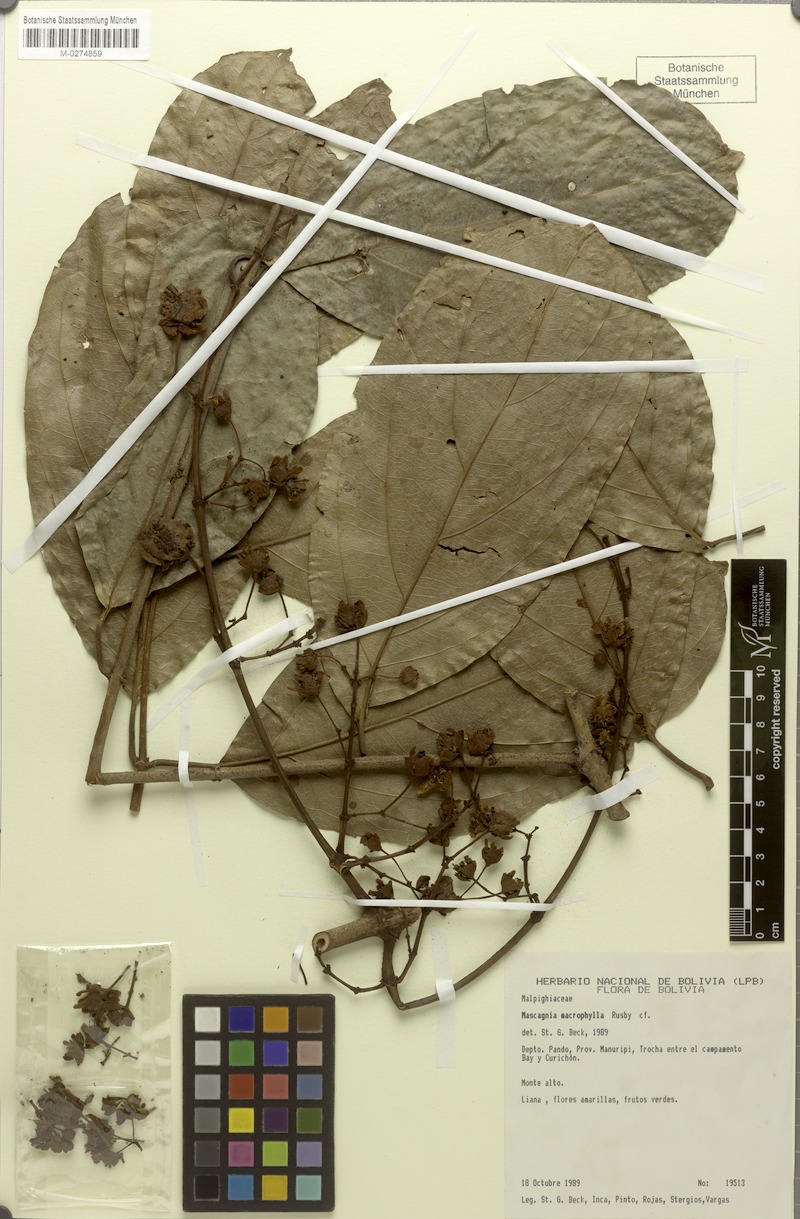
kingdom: Plantae
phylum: Tracheophyta
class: Magnoliopsida
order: Malpighiales
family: Malpighiaceae
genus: Mezia
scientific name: Mezia beckii
